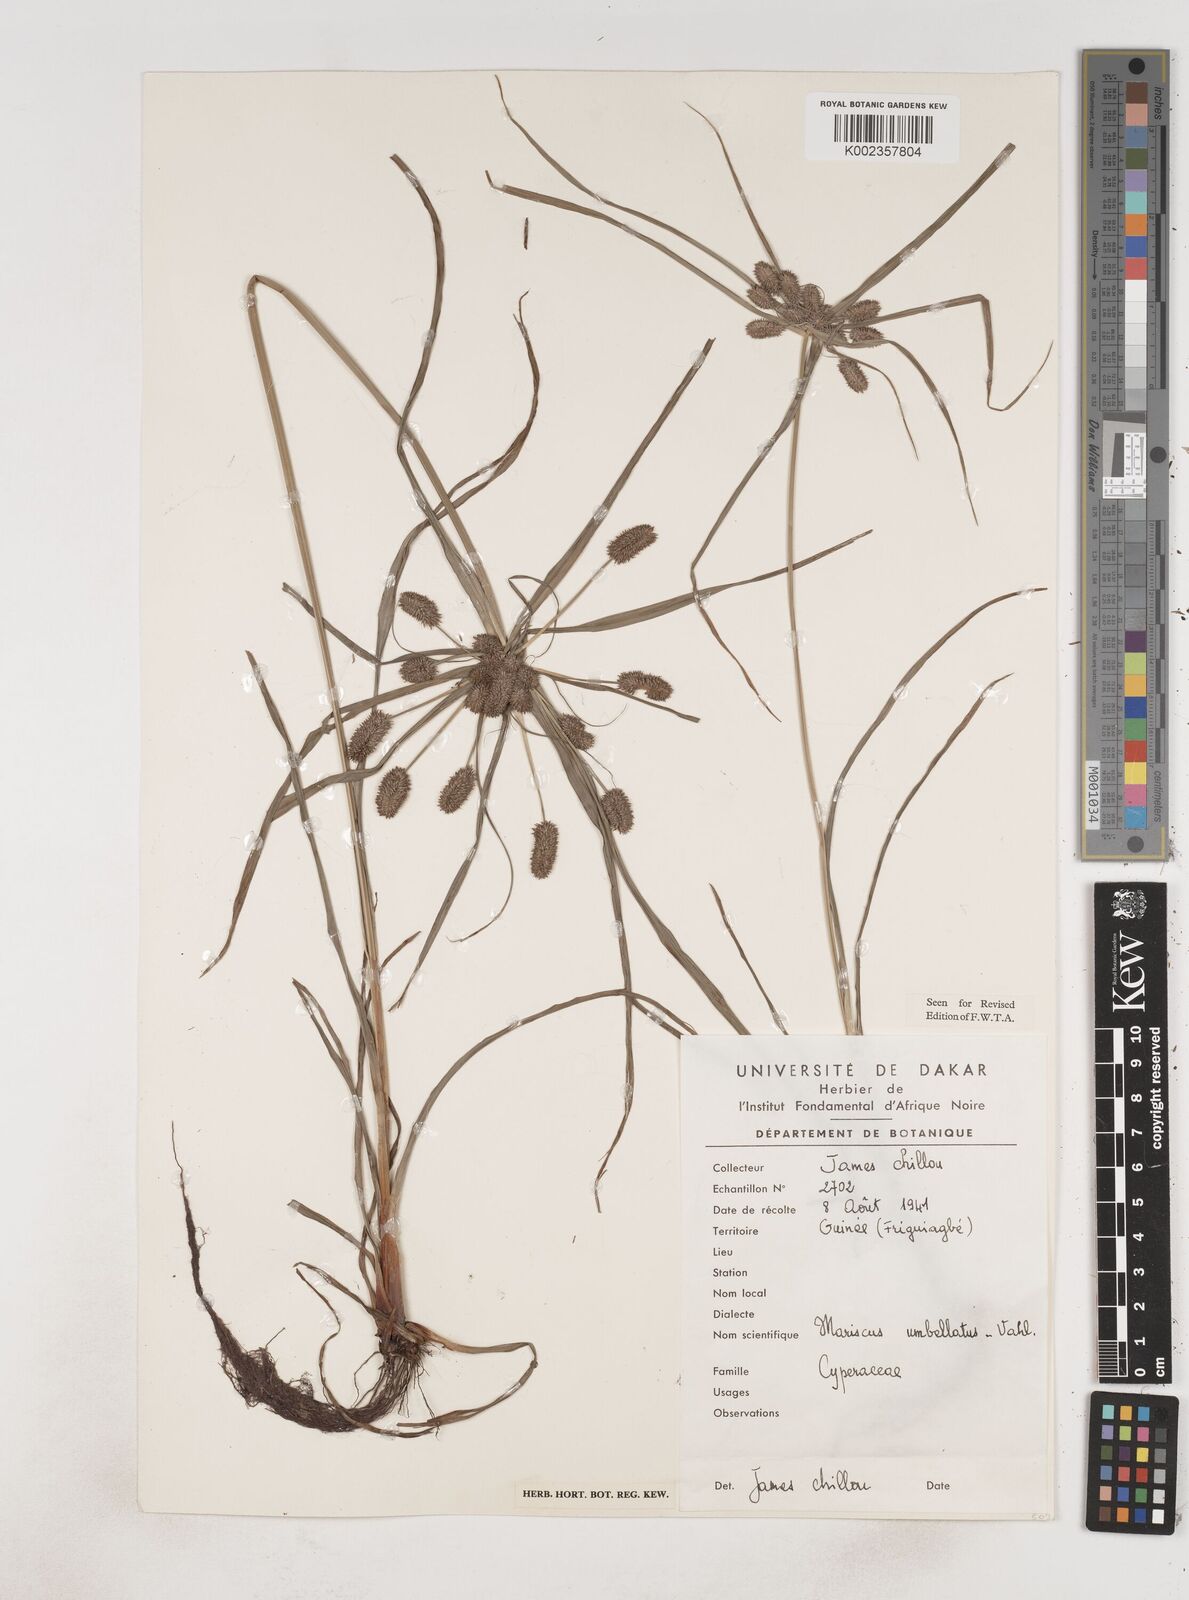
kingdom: Plantae
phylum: Tracheophyta
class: Liliopsida
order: Poales
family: Cyperaceae
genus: Cyperus
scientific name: Cyperus sublimis
